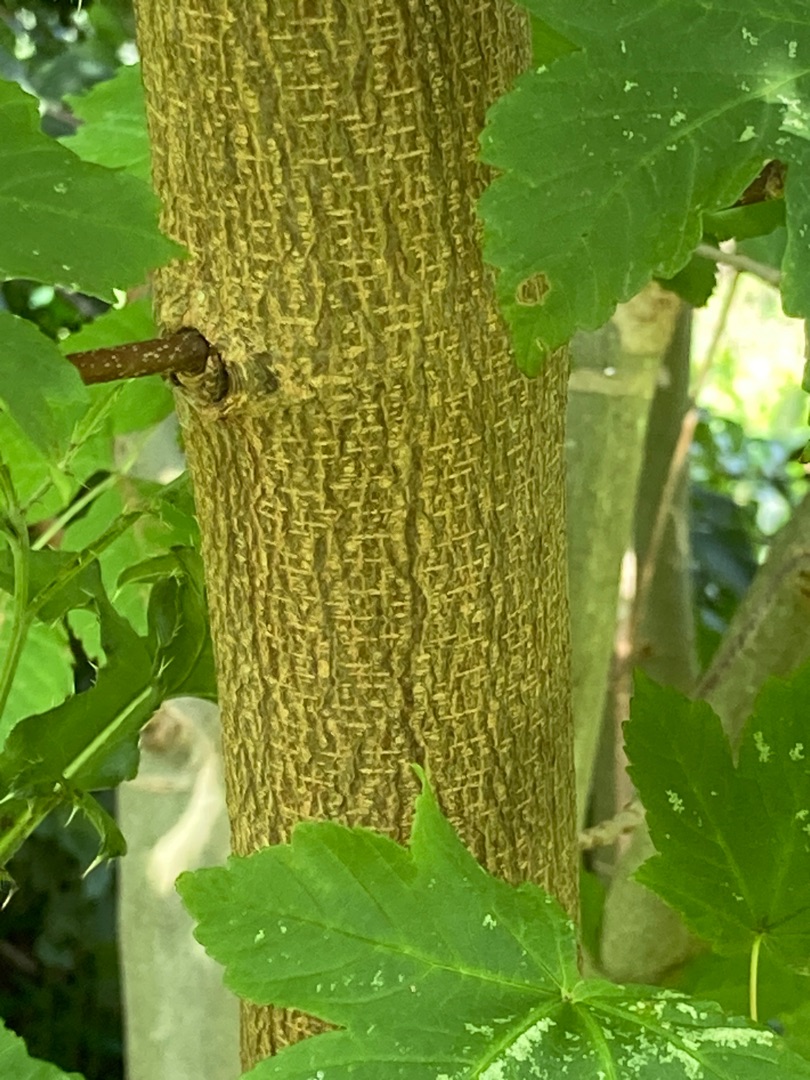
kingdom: Plantae
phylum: Tracheophyta
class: Magnoliopsida
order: Sapindales
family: Sapindaceae
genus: Acer
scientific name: Acer pseudoplatanus
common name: Ahorn
